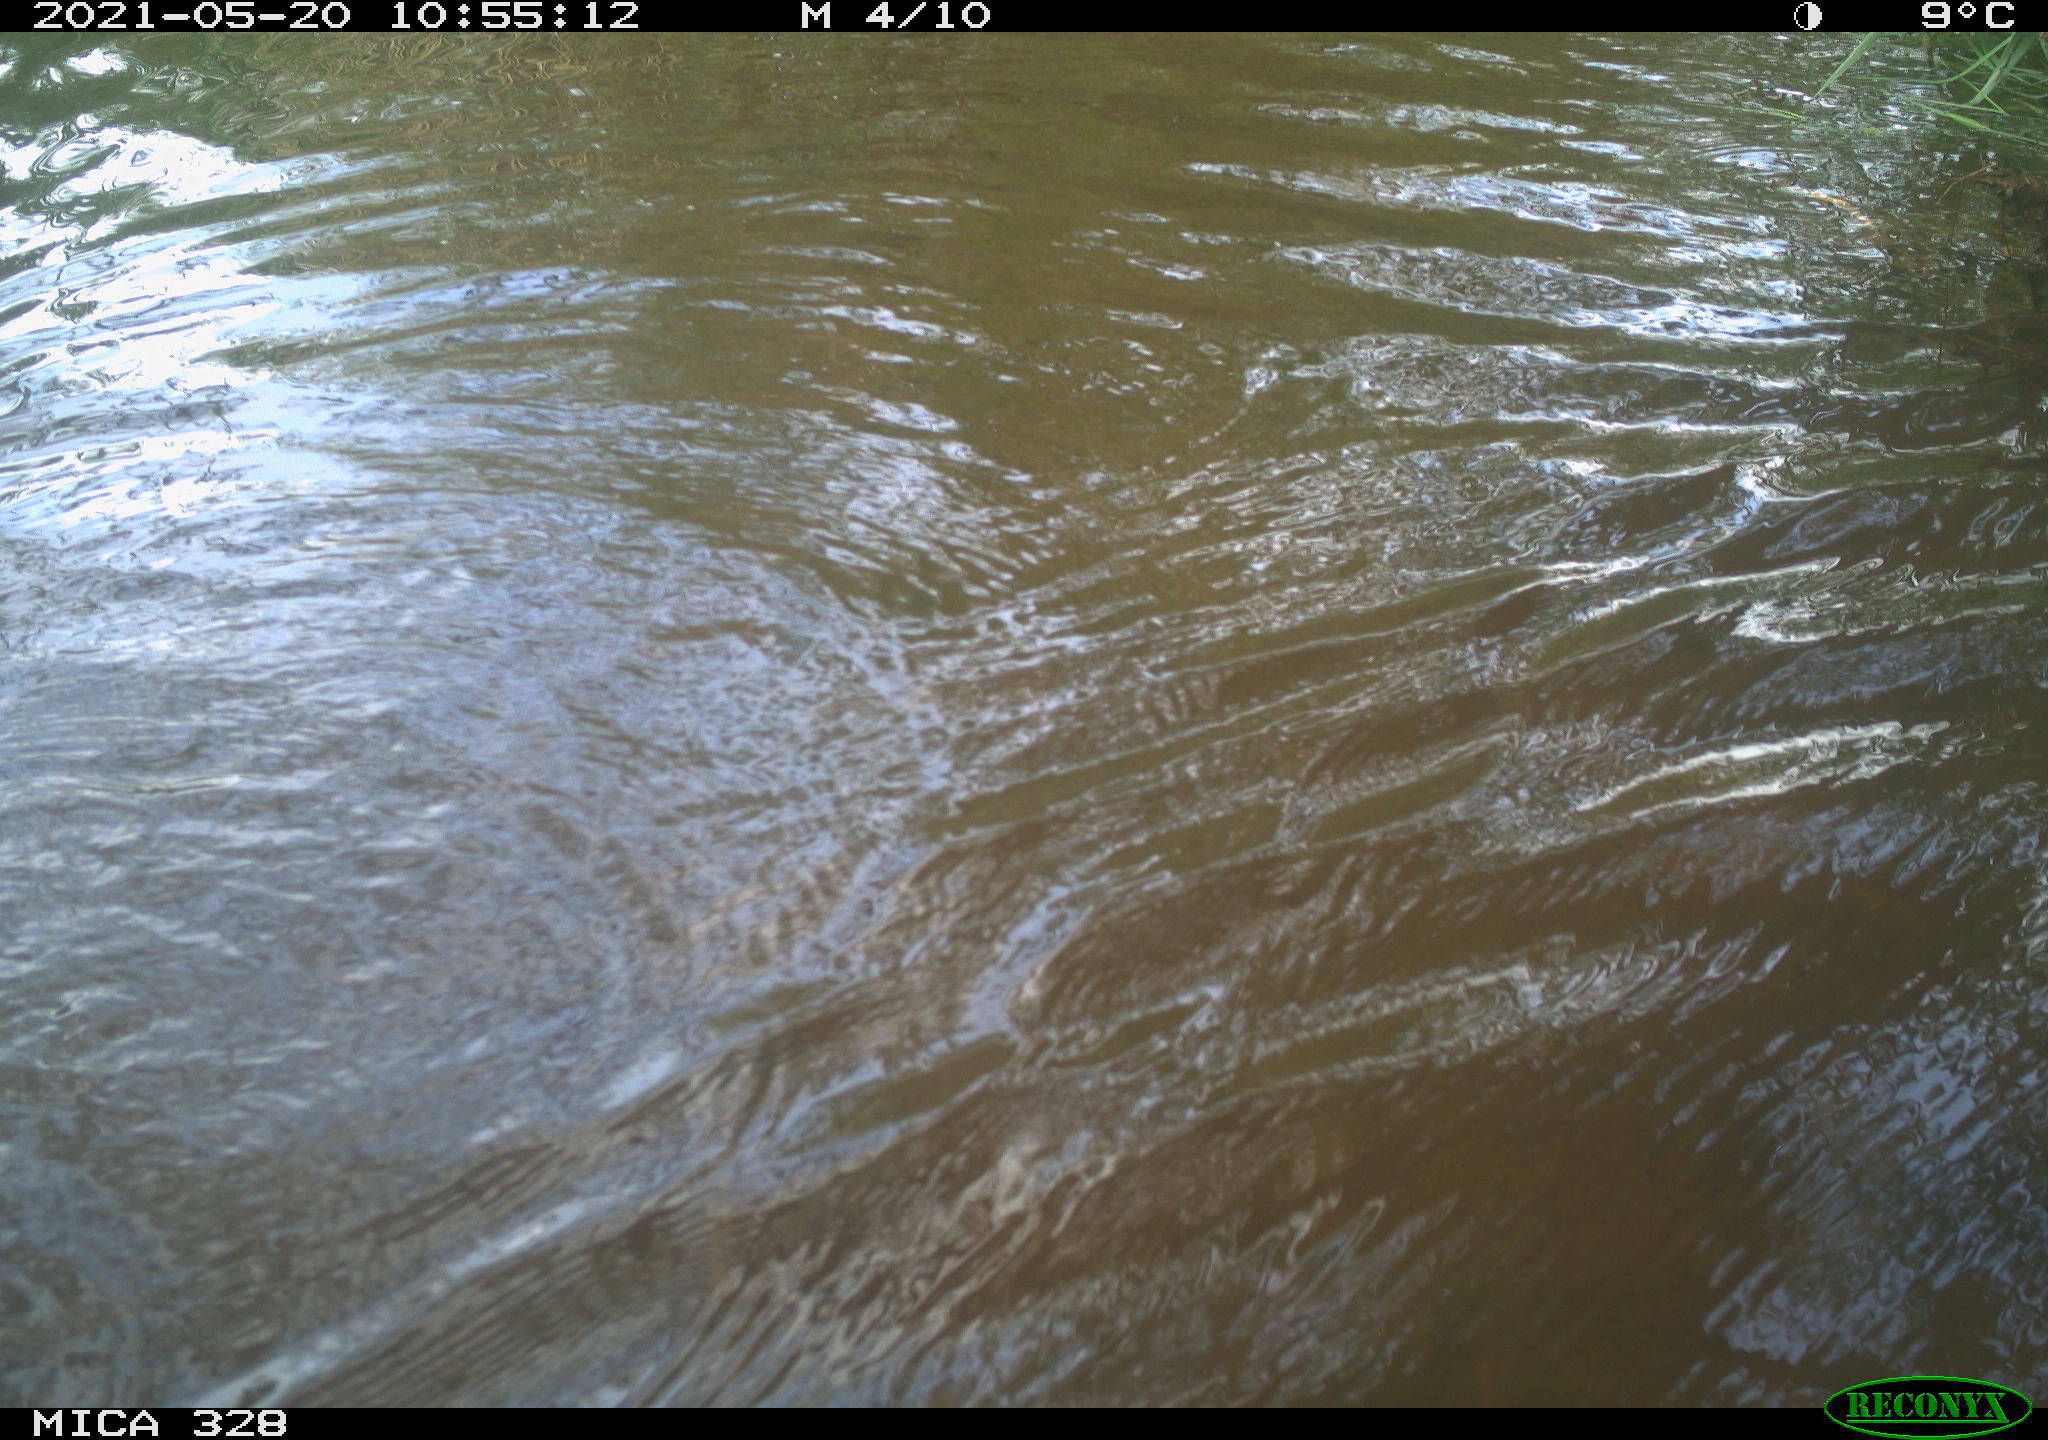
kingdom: Animalia
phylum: Chordata
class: Mammalia
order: Rodentia
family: Cricetidae
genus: Ondatra
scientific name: Ondatra zibethicus
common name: Muskrat
